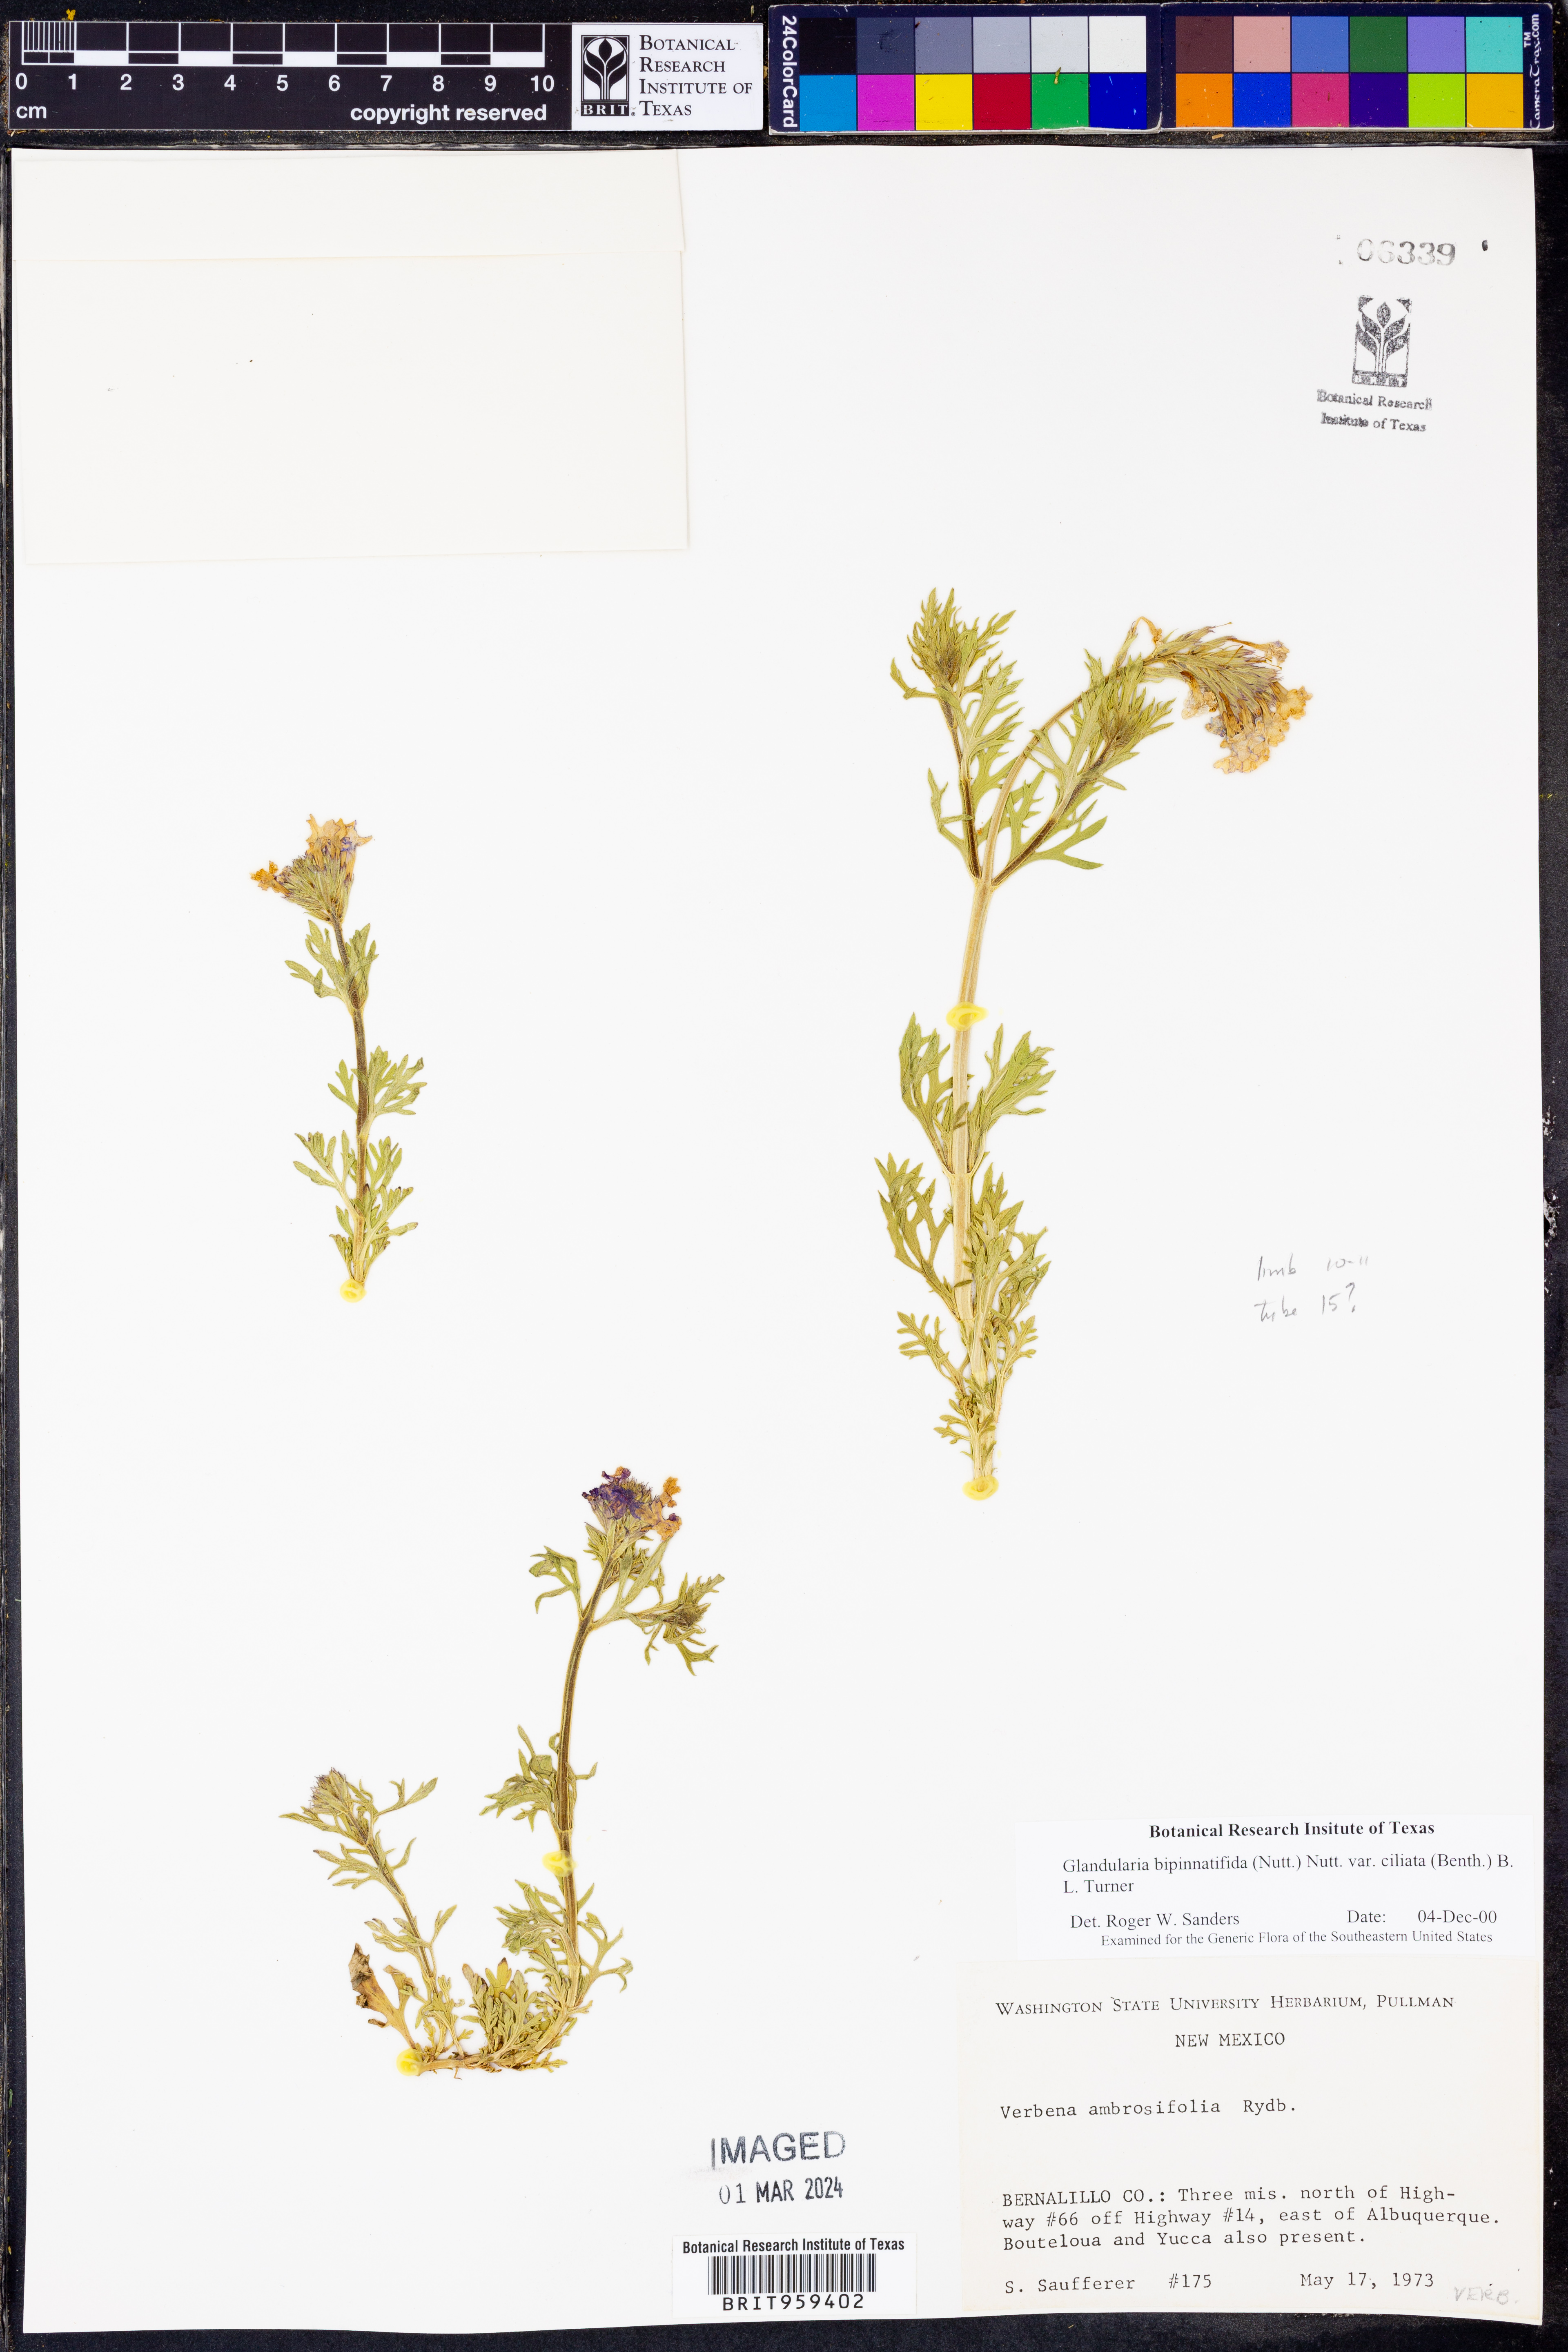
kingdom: Plantae
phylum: Tracheophyta
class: Magnoliopsida
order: Lamiales
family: Verbenaceae
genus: Verbena
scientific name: Verbena bipinnatifida
